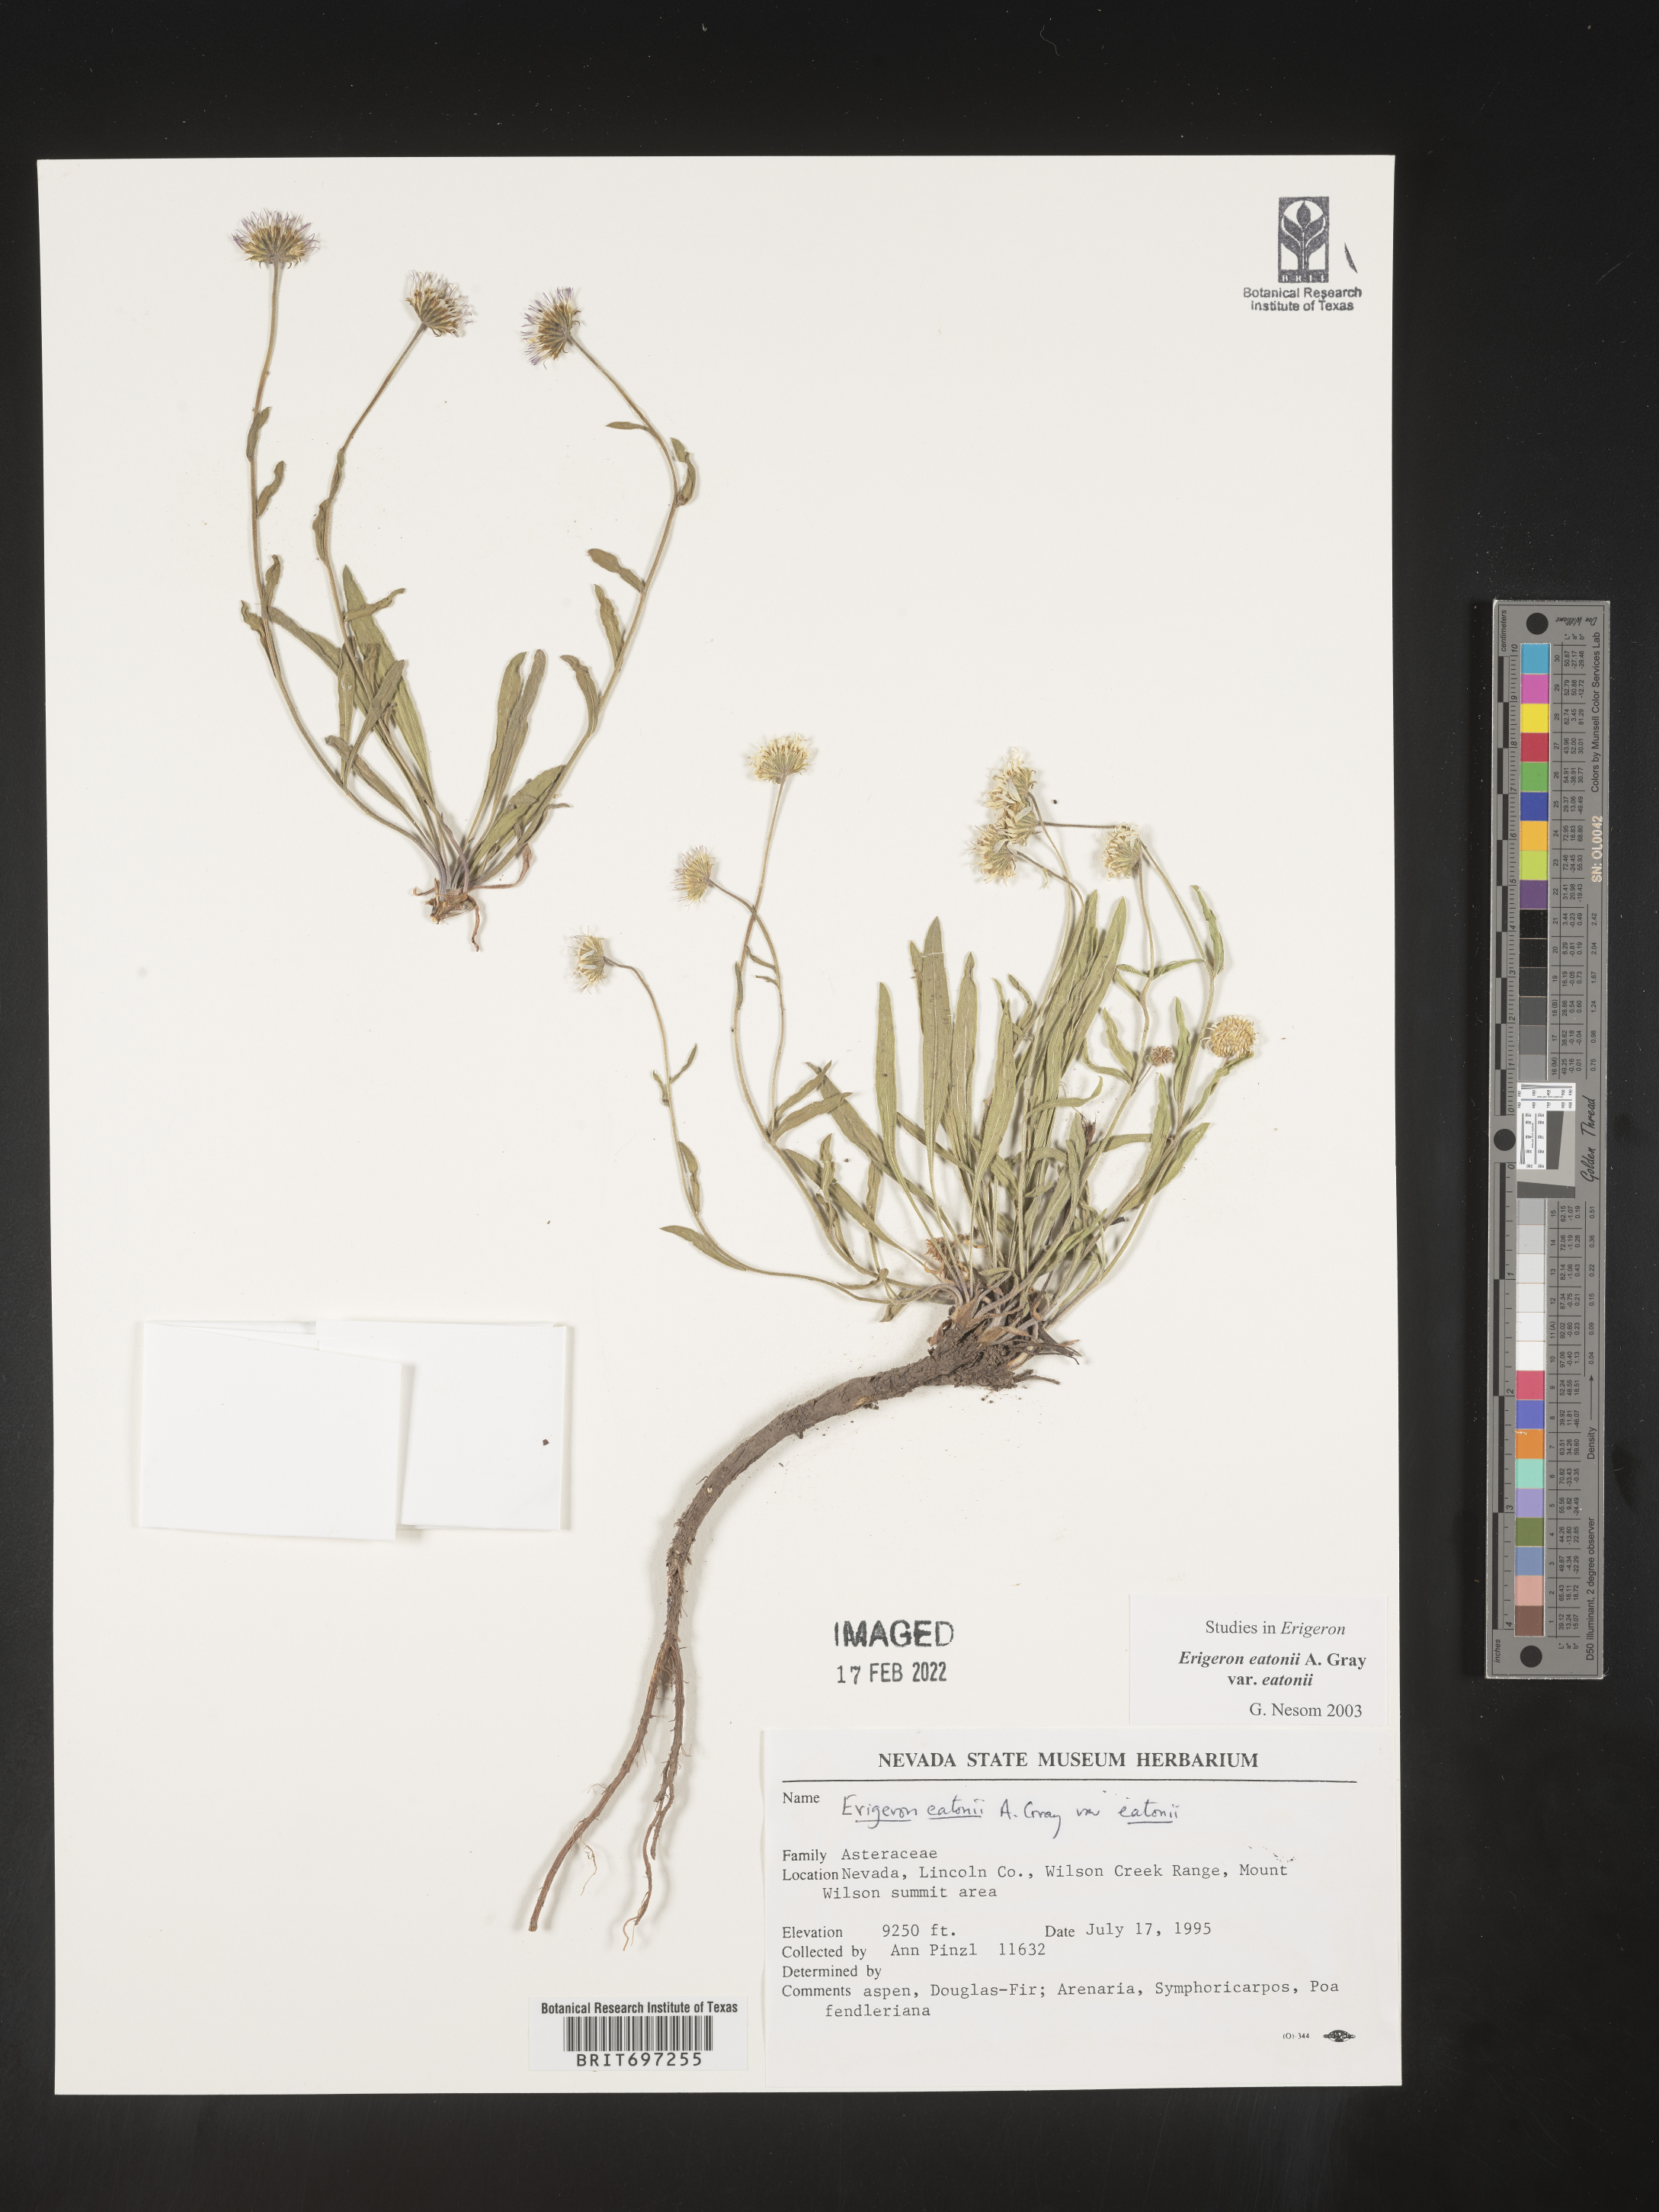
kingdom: Plantae
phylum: Tracheophyta
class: Magnoliopsida
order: Asterales
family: Asteraceae
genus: Erigeron
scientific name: Erigeron eatonii
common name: Eaton's fleabane
